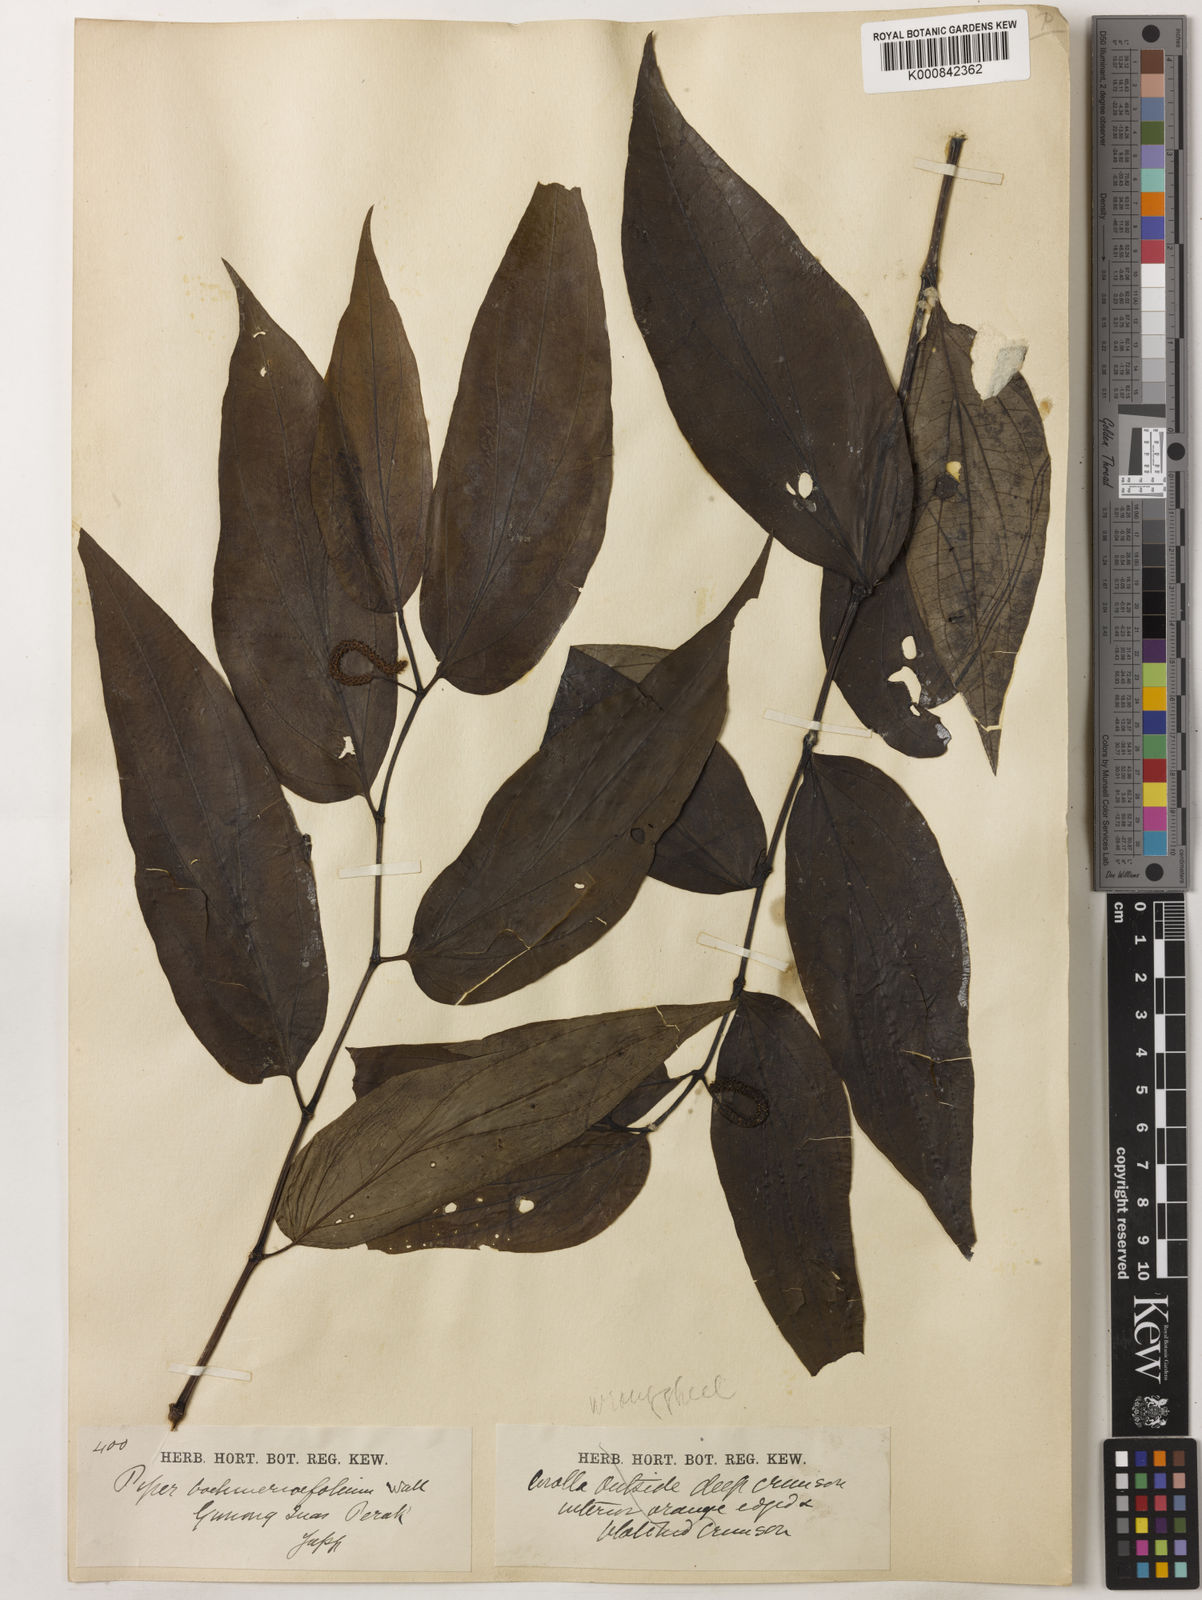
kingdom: Plantae
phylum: Tracheophyta
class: Magnoliopsida
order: Piperales
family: Piperaceae
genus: Piper
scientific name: Piper boehmeriifolium
